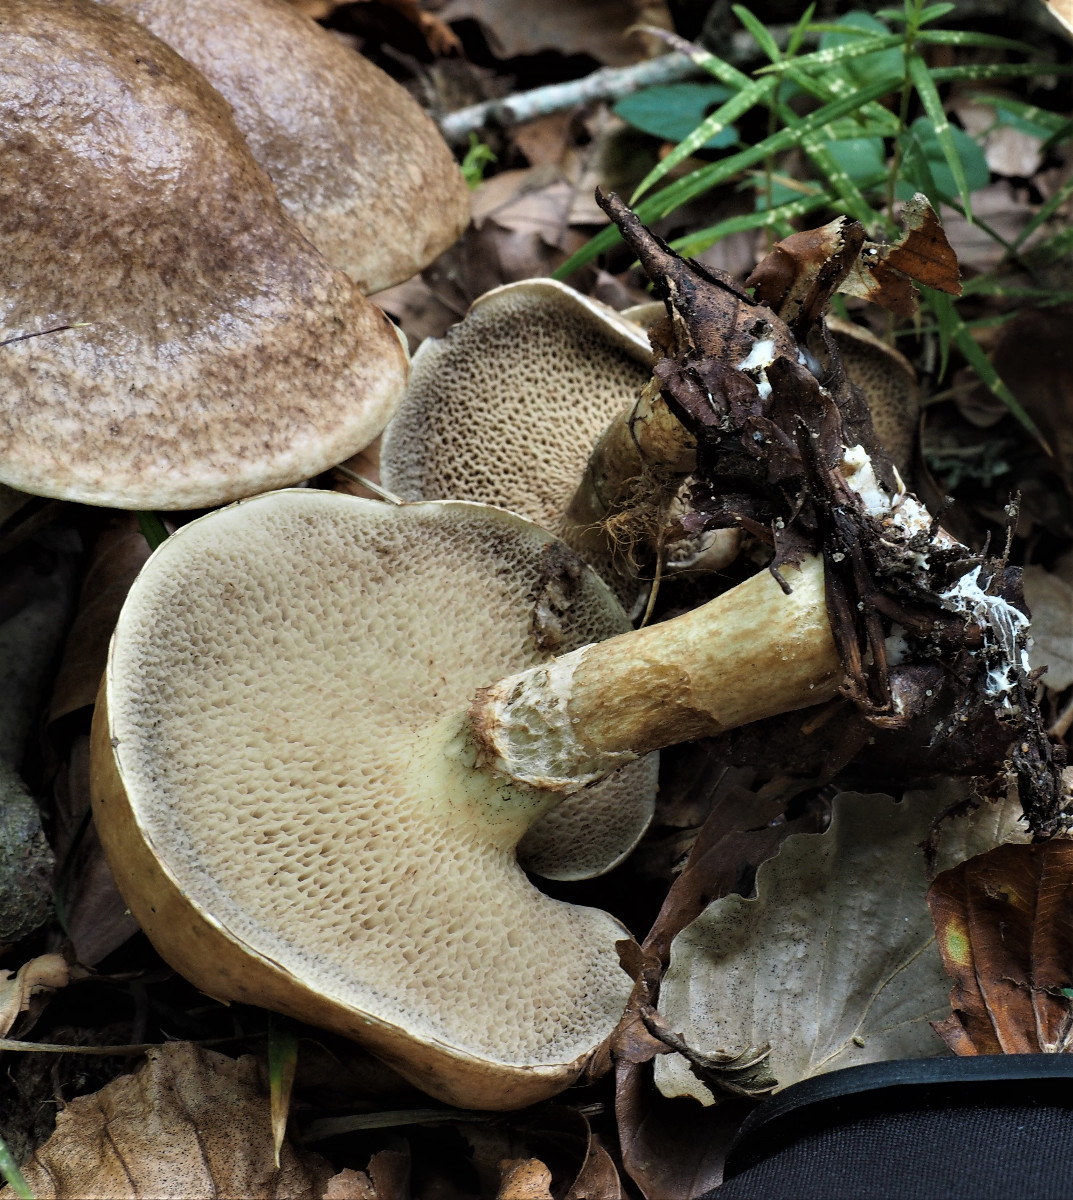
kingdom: Fungi
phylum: Basidiomycota
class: Agaricomycetes
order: Boletales
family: Suillaceae
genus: Suillus
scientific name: Suillus viscidus
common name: olivengrå slimrørhat
